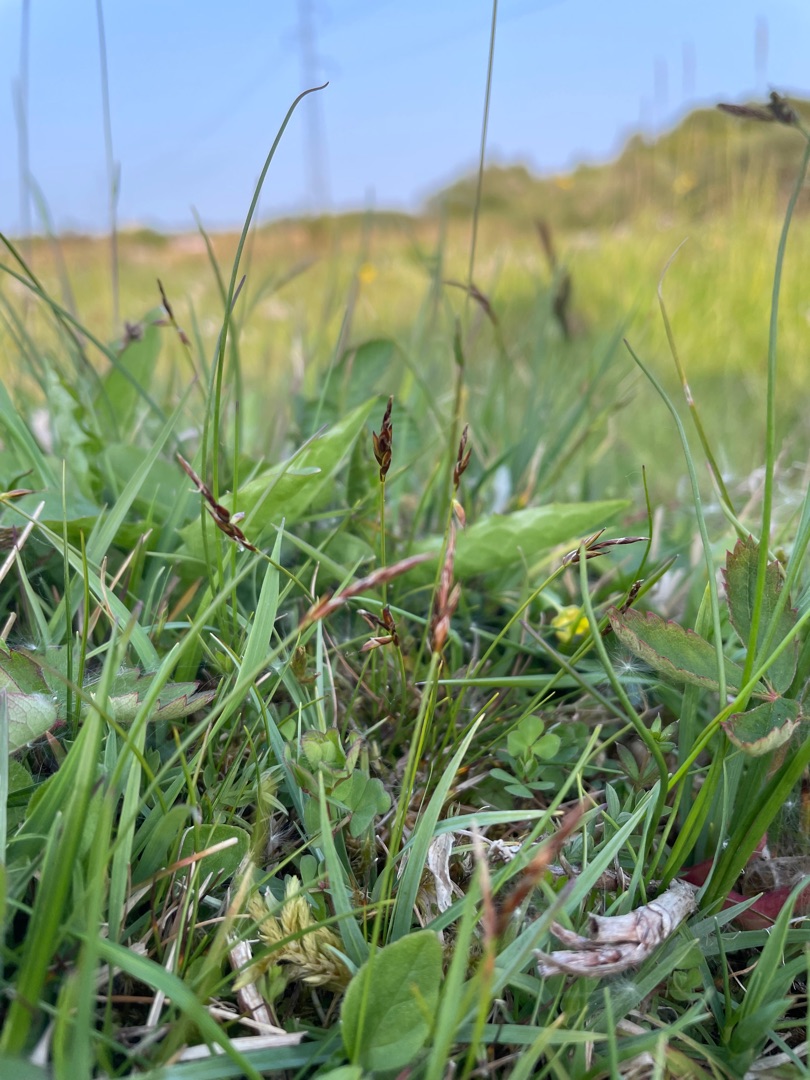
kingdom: Plantae
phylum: Tracheophyta
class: Liliopsida
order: Poales
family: Cyperaceae
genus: Carex
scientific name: Carex pulicaris
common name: Loppe-star
